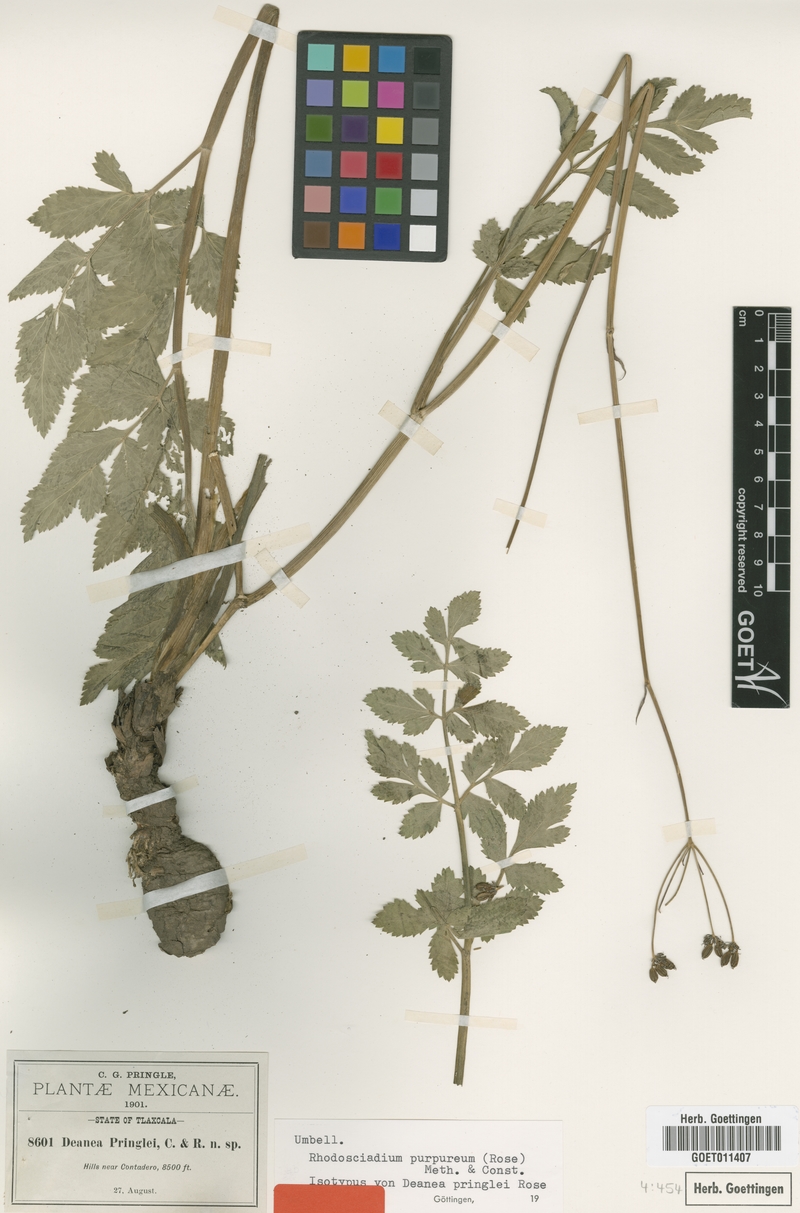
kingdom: Plantae
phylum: Tracheophyta
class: Magnoliopsida
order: Apiales
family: Apiaceae
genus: Rhodosciadium
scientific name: Rhodosciadium purpureum
